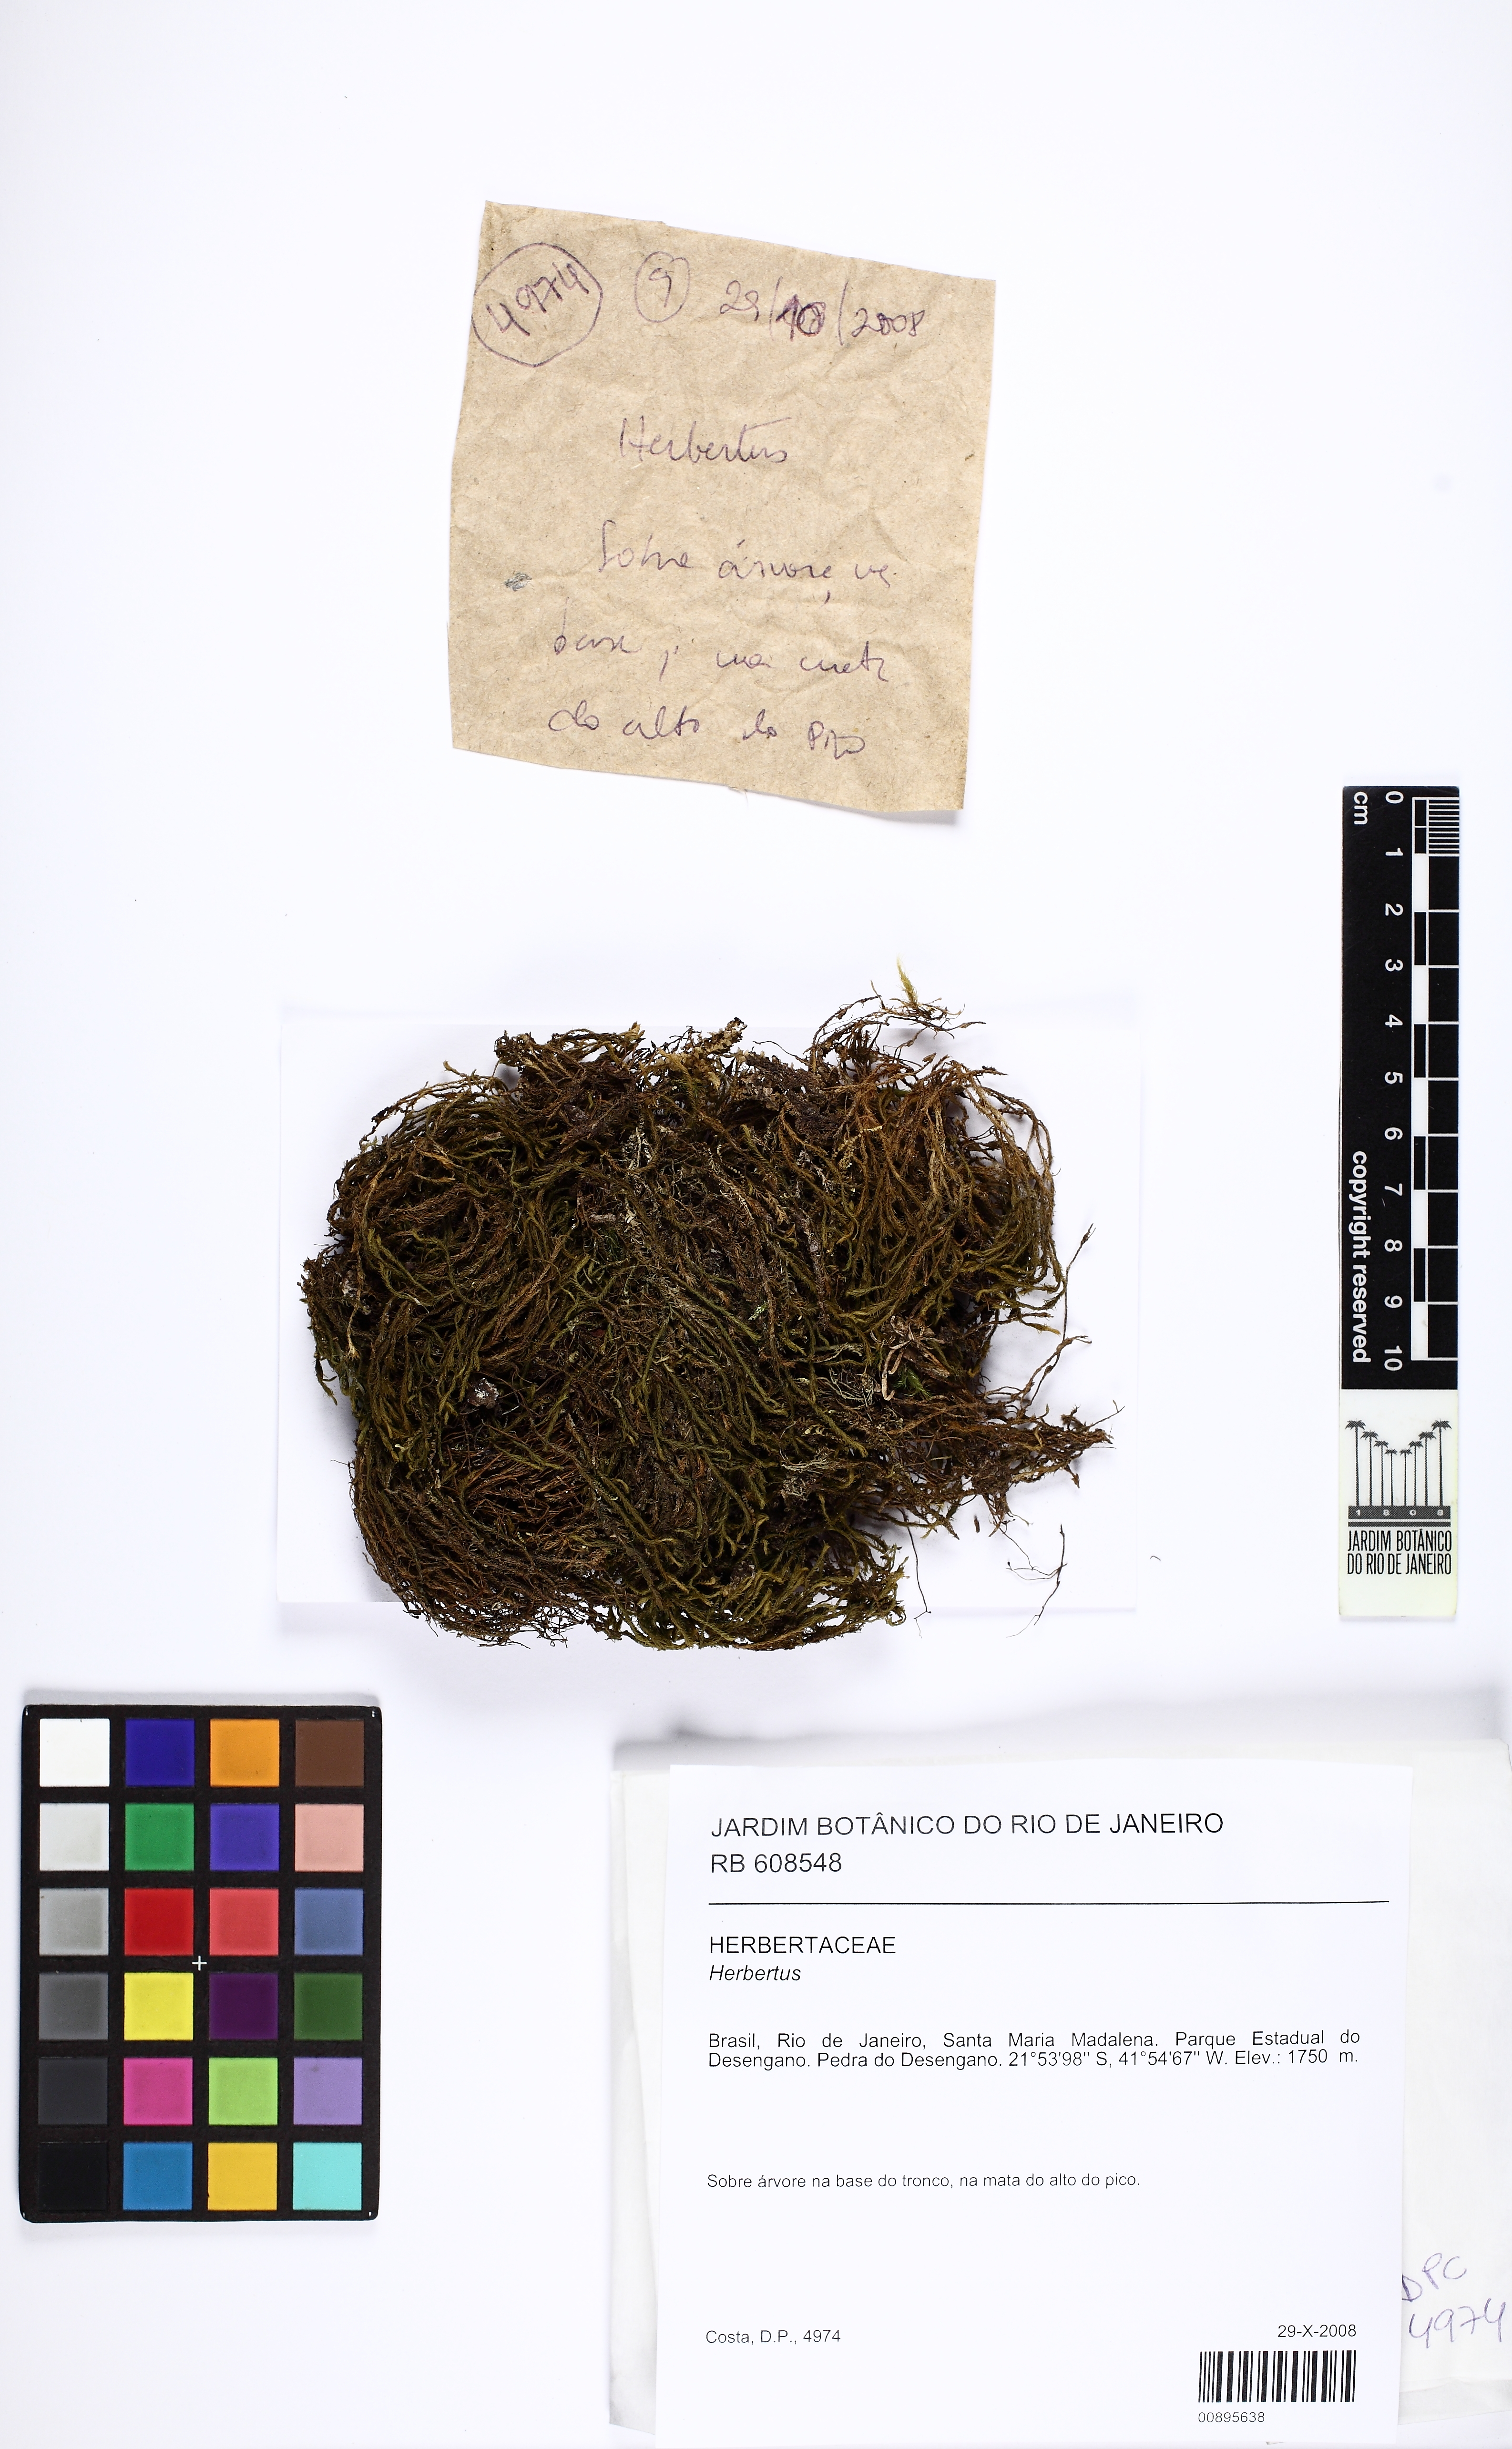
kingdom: Plantae
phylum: Marchantiophyta
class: Jungermanniopsida
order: Jungermanniales
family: Herbertaceae
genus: Herbertus
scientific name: Herbertus
